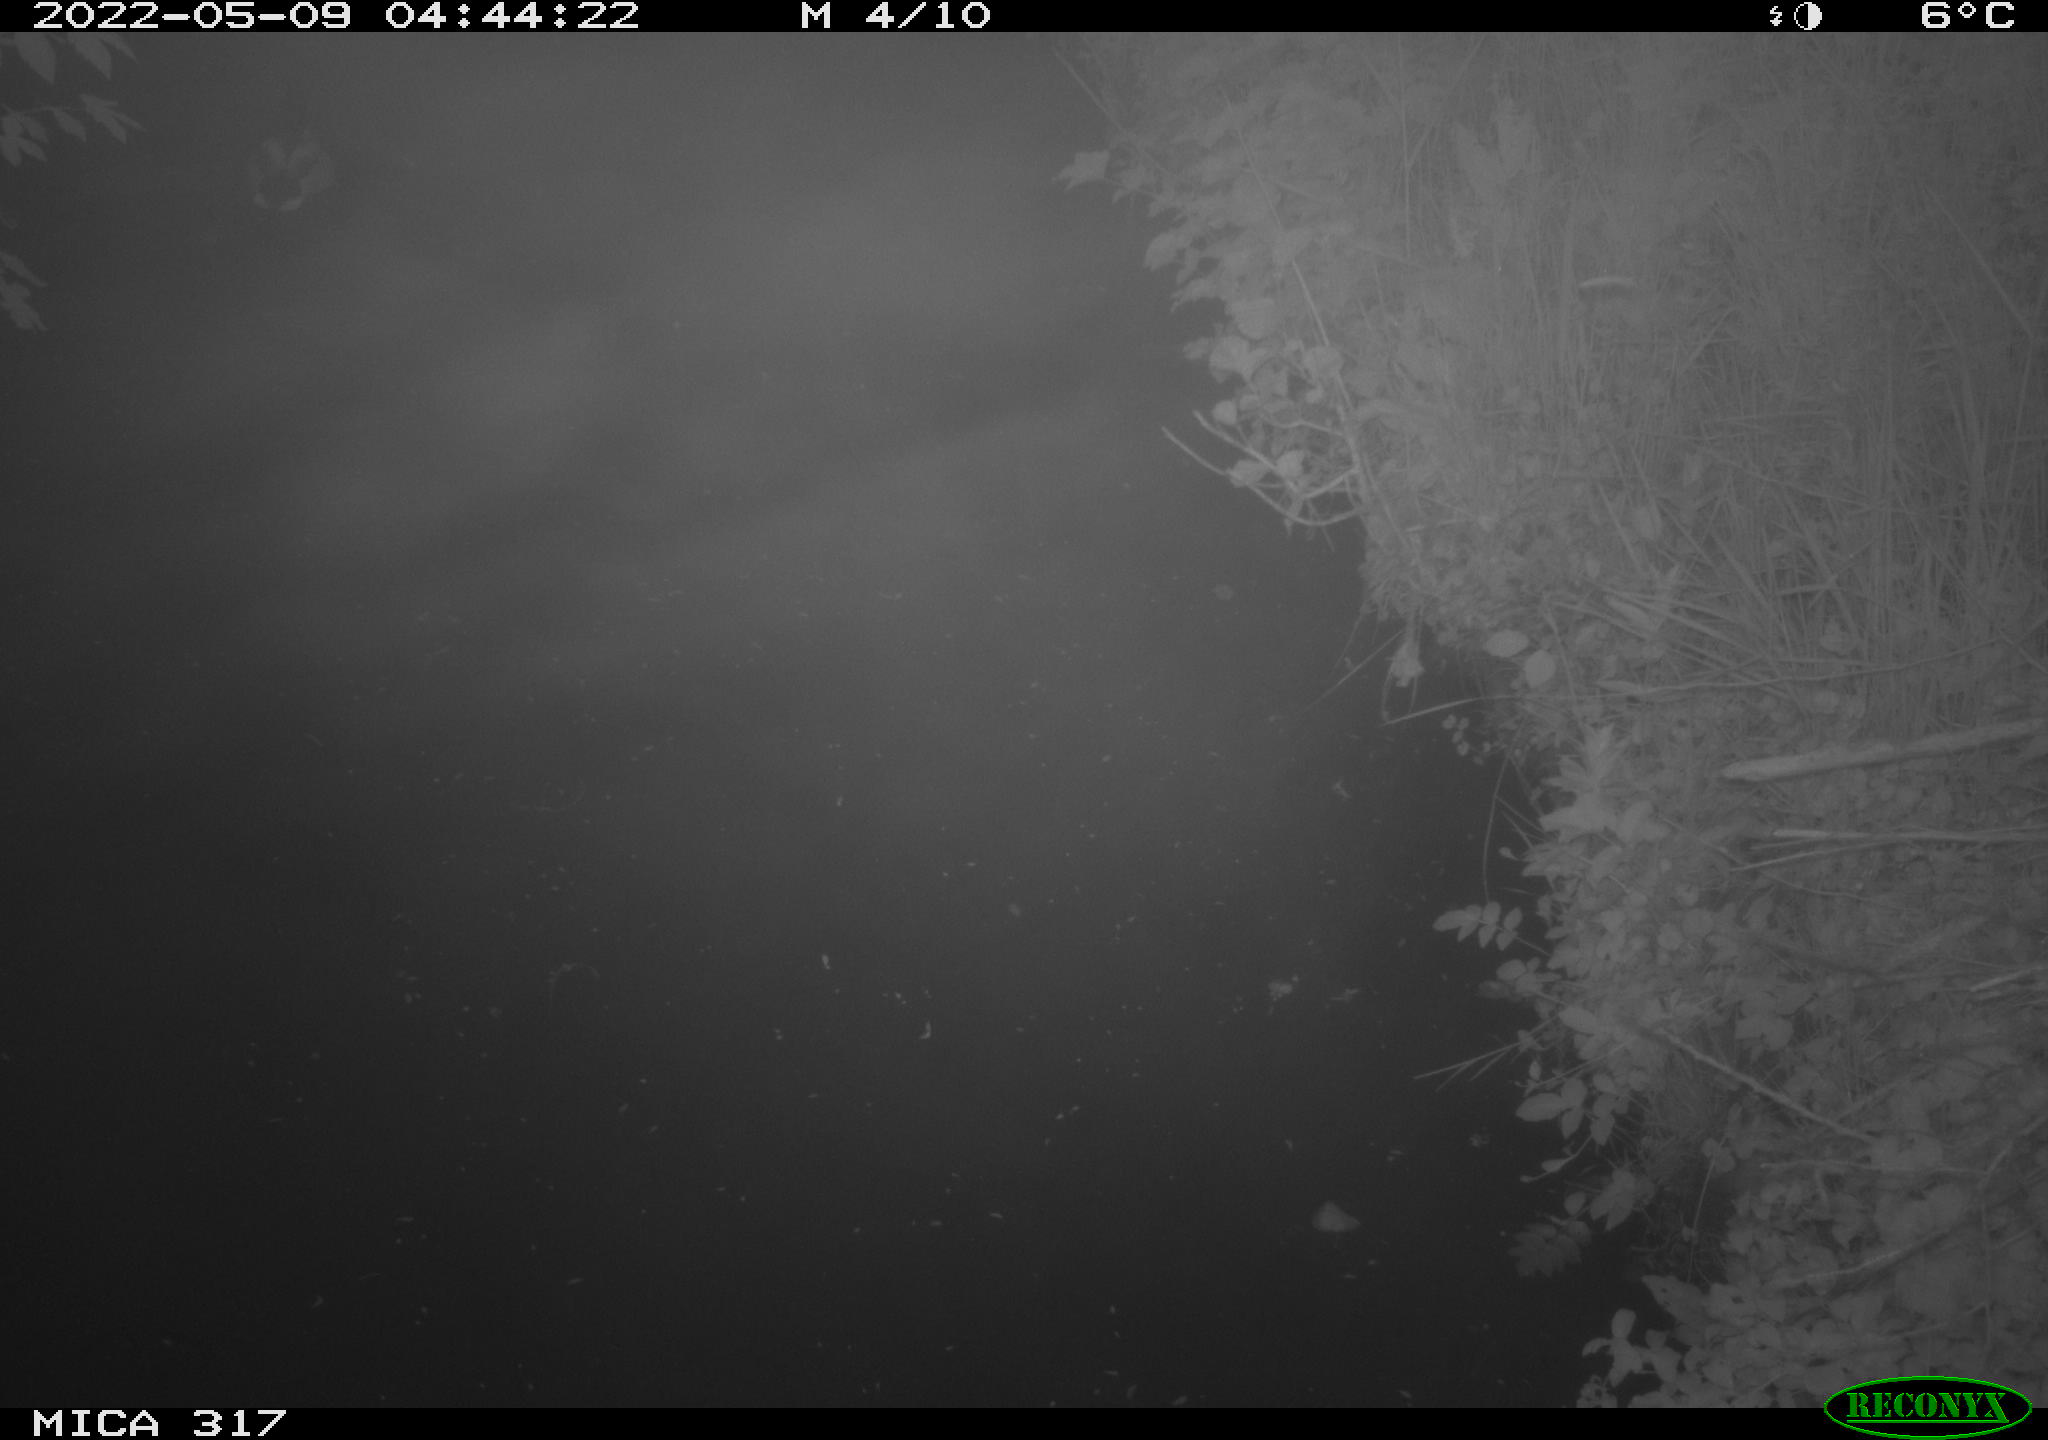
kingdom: Animalia
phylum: Chordata
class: Aves
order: Anseriformes
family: Anatidae
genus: Anas
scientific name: Anas platyrhynchos
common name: Mallard
